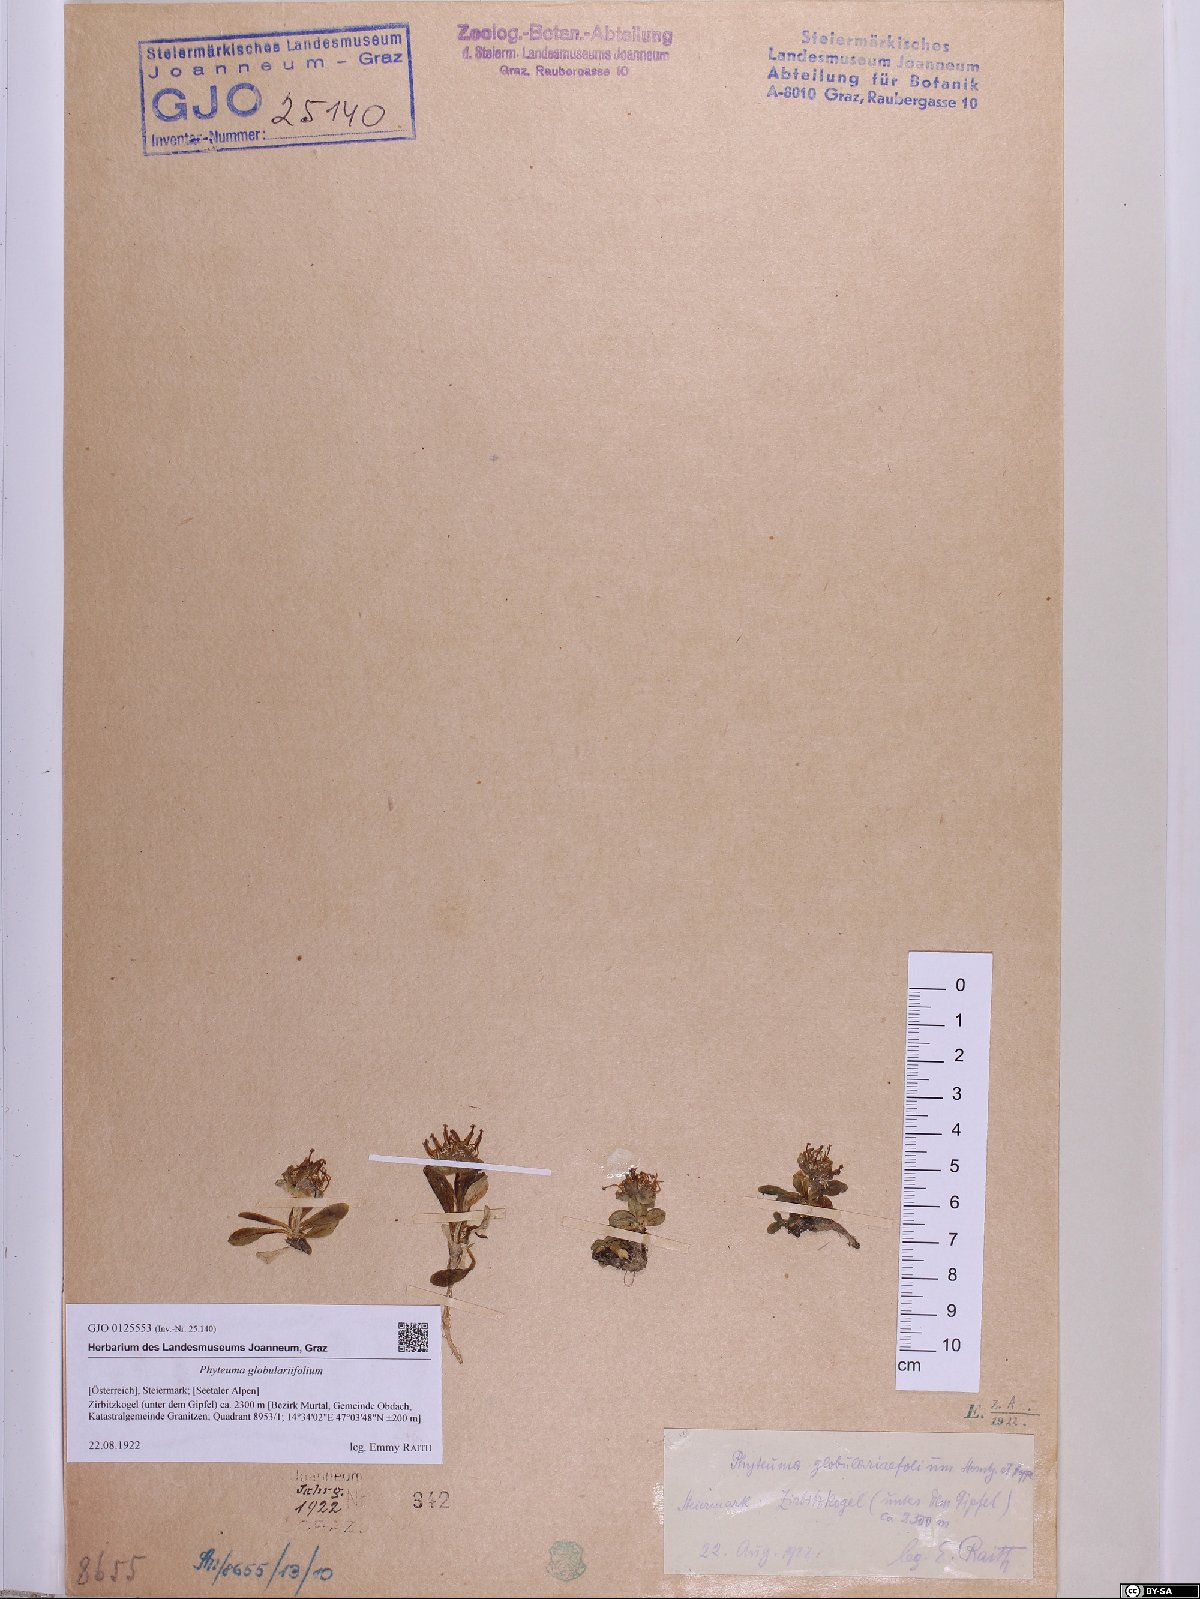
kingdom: Plantae
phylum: Tracheophyta
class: Magnoliopsida
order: Asterales
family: Campanulaceae
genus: Phyteuma
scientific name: Phyteuma globulariifolium
